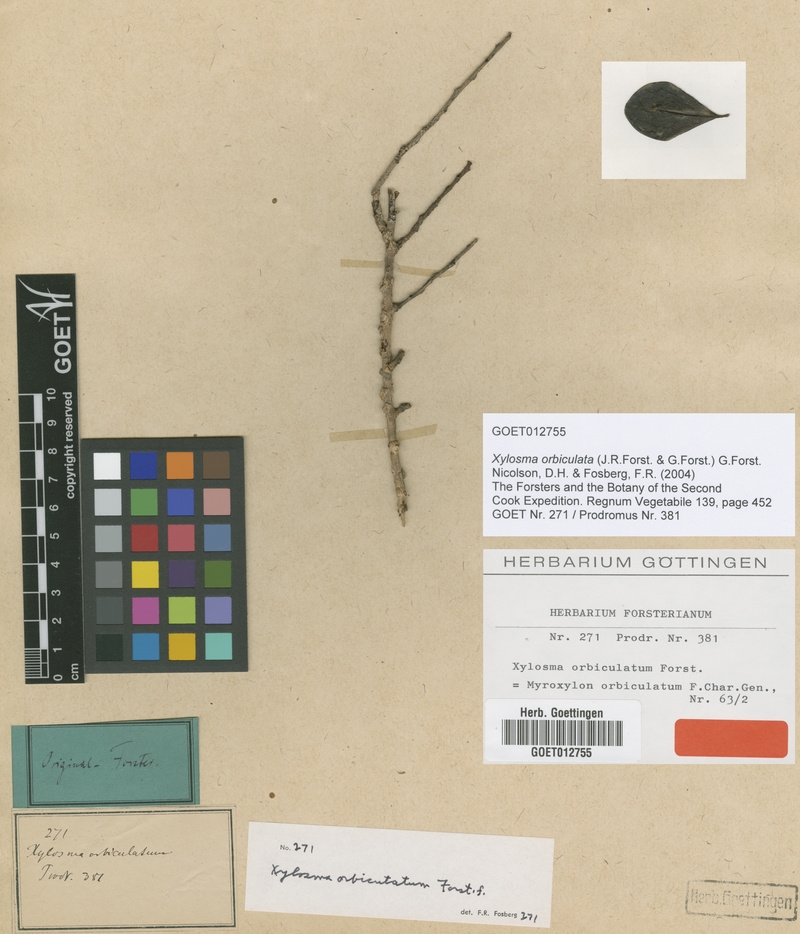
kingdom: Plantae
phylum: Tracheophyta
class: Magnoliopsida
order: Malpighiales
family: Salicaceae
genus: Xylosma
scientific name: Xylosma orbiculata
